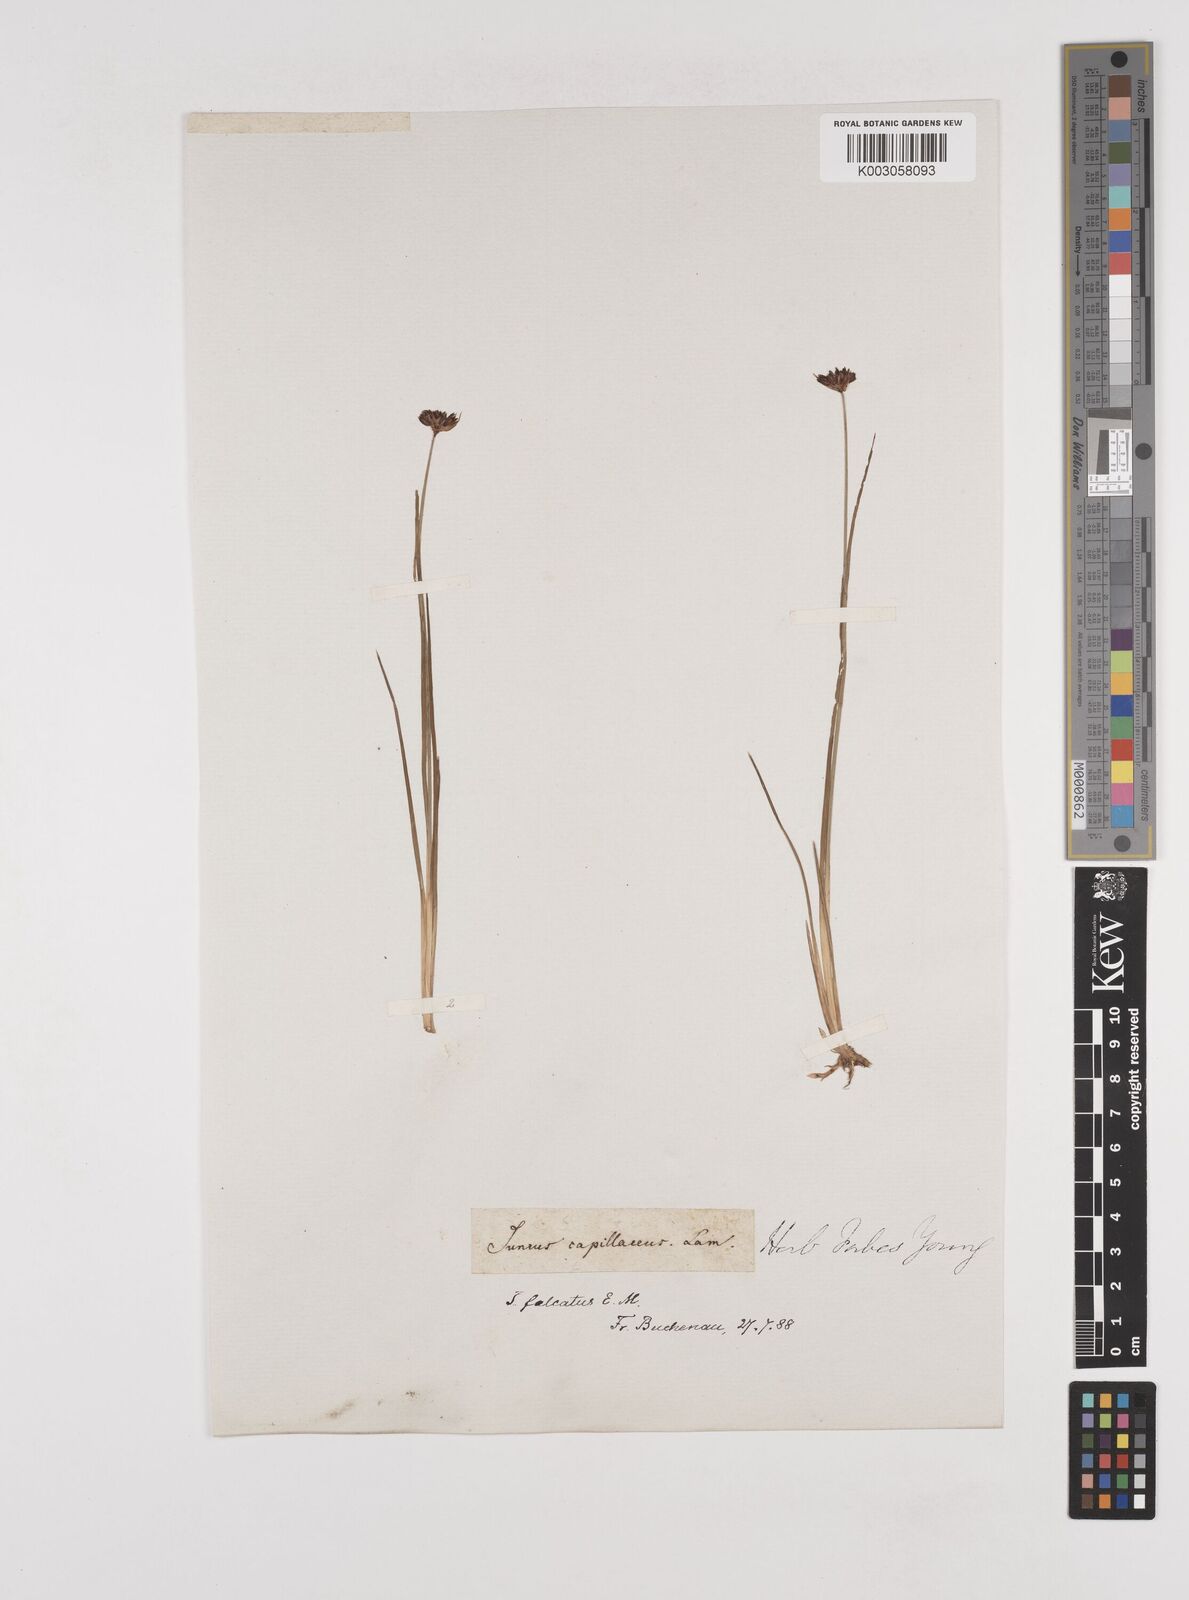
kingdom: Plantae
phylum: Tracheophyta
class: Liliopsida
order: Poales
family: Juncaceae
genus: Juncus
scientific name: Juncus falcatus
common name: Sickle-leaf rush
